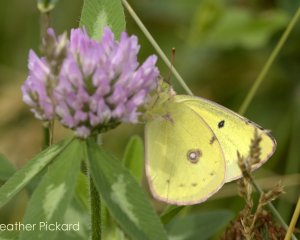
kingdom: Animalia
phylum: Arthropoda
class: Insecta
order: Lepidoptera
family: Pieridae
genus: Colias
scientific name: Colias philodice
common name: Clouded Sulphur
